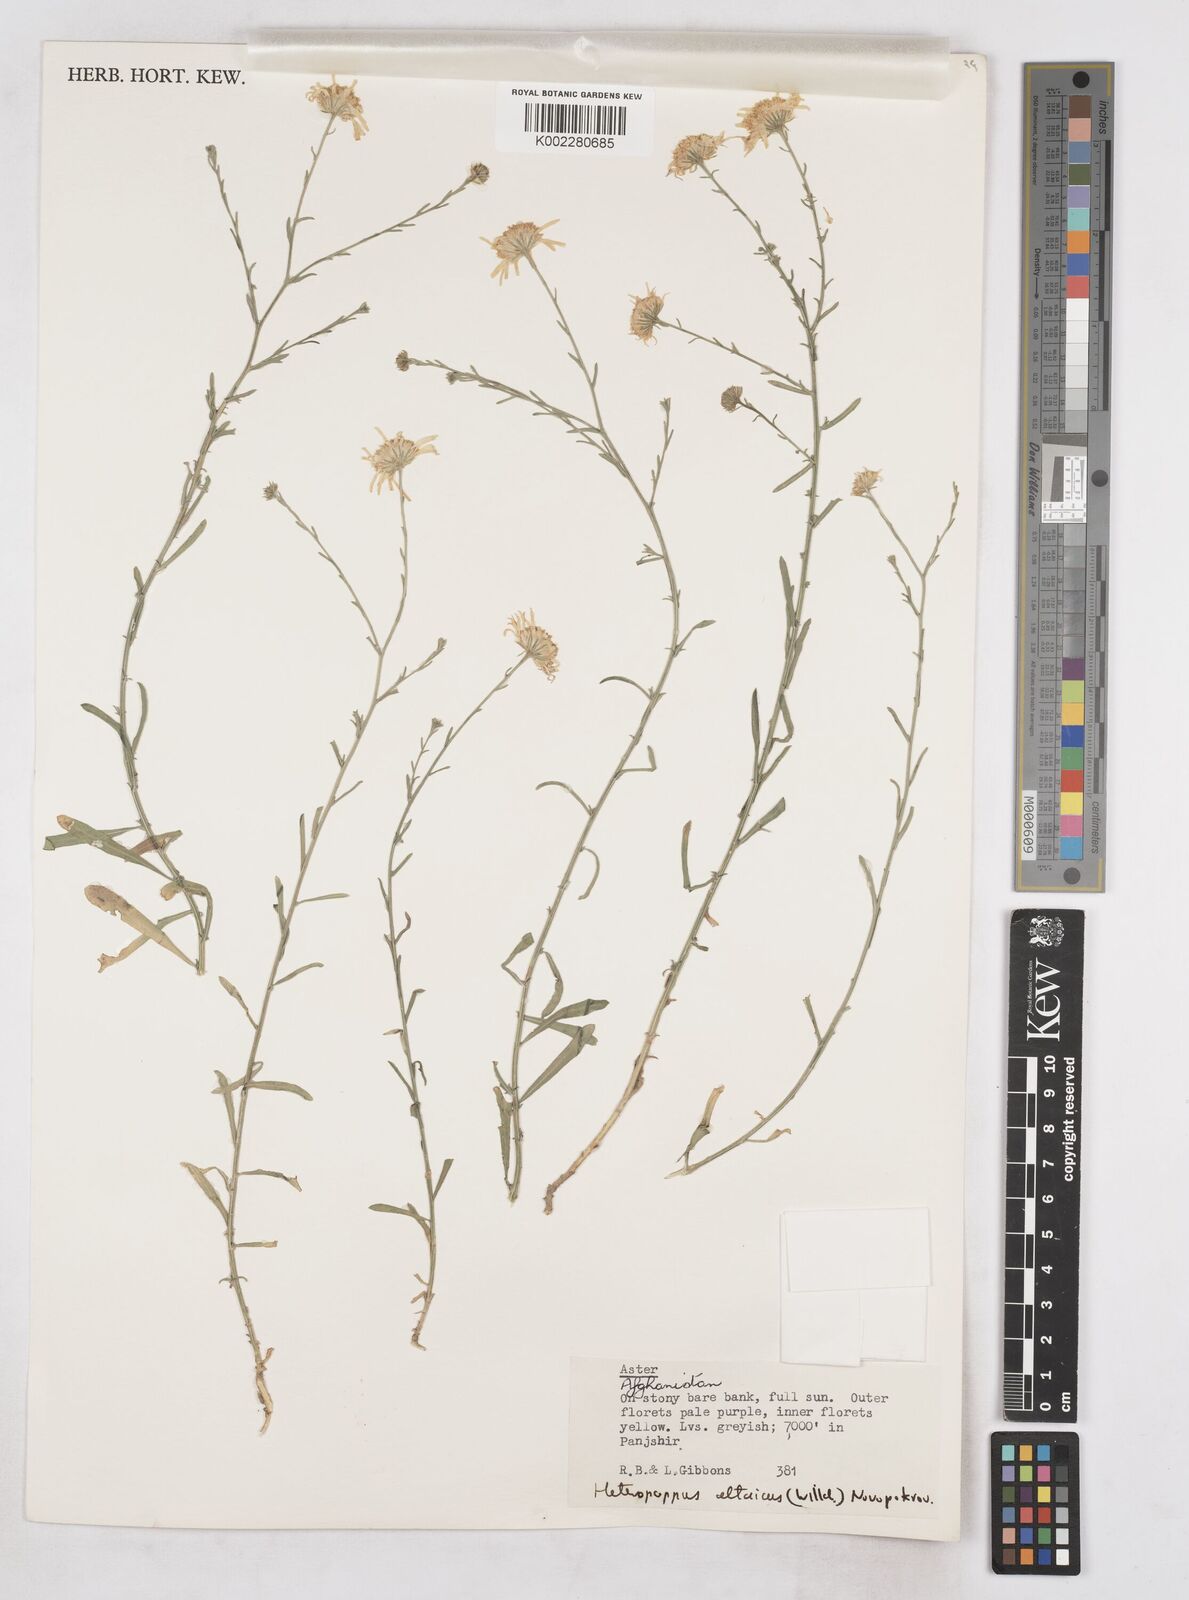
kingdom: Plantae
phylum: Tracheophyta
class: Magnoliopsida
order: Asterales
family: Asteraceae
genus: Heteropappus
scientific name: Heteropappus altaicus
